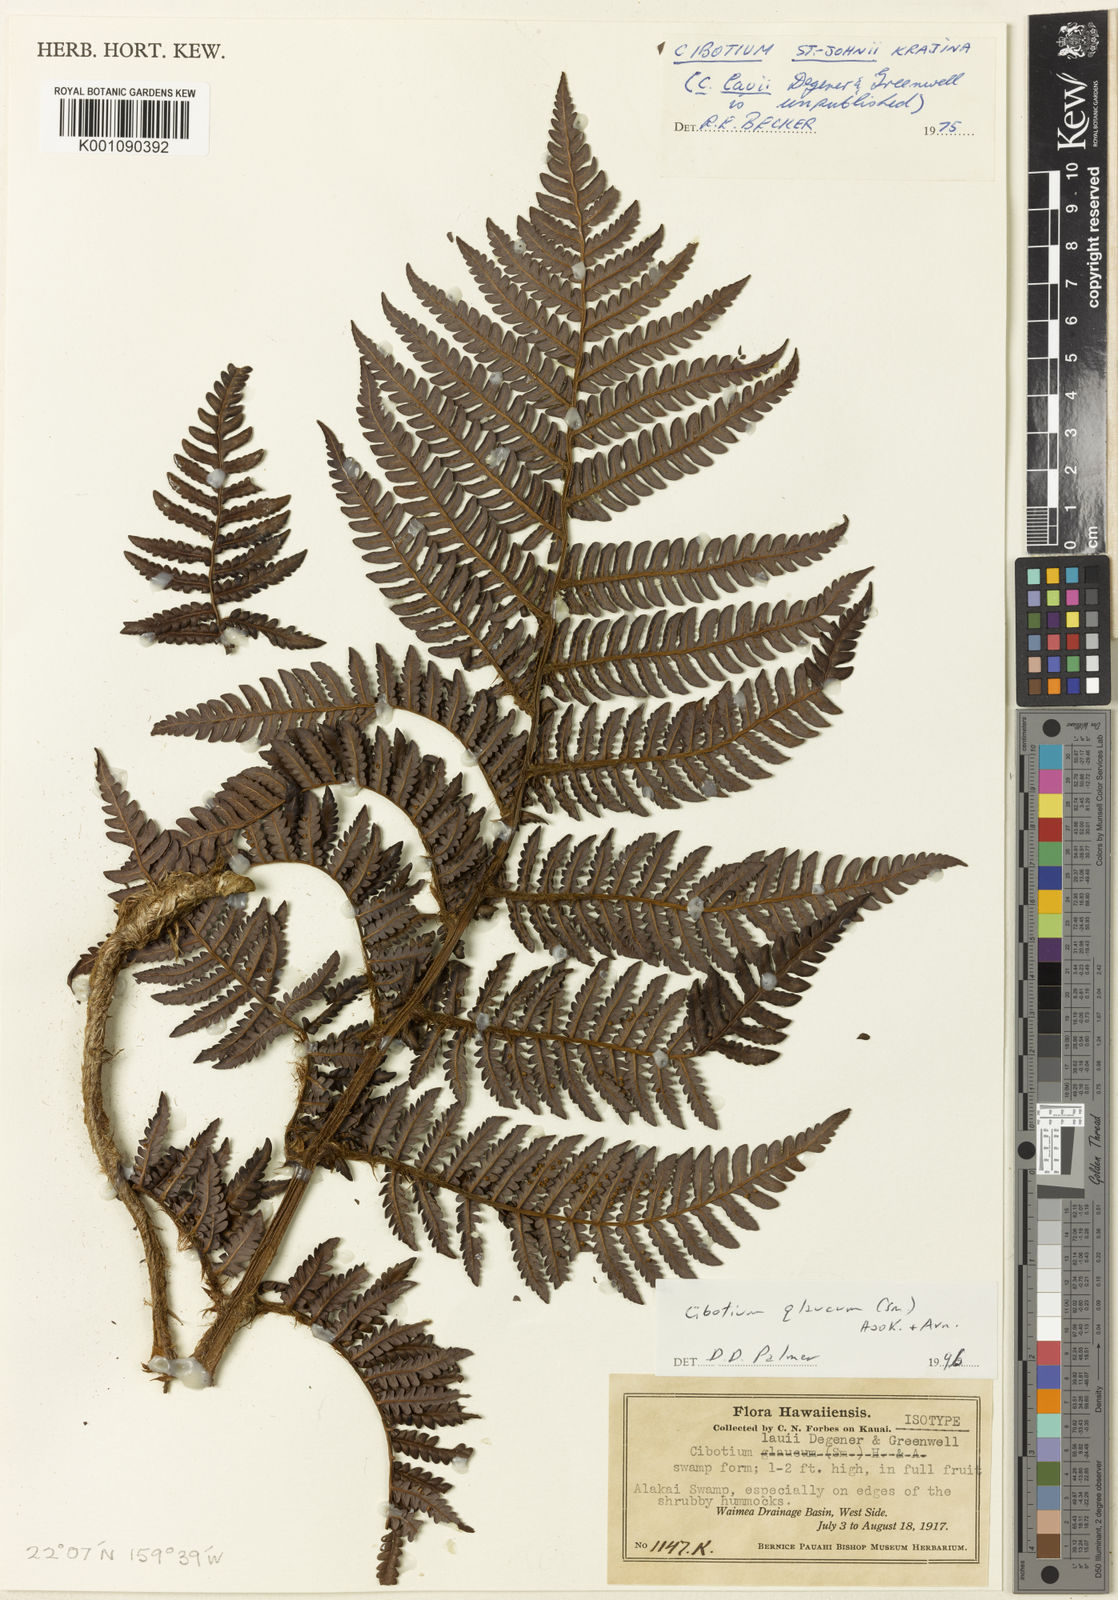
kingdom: Plantae
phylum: Tracheophyta
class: Polypodiopsida
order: Cyatheales
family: Cibotiaceae
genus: Cibotium
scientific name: Cibotium glaucum
